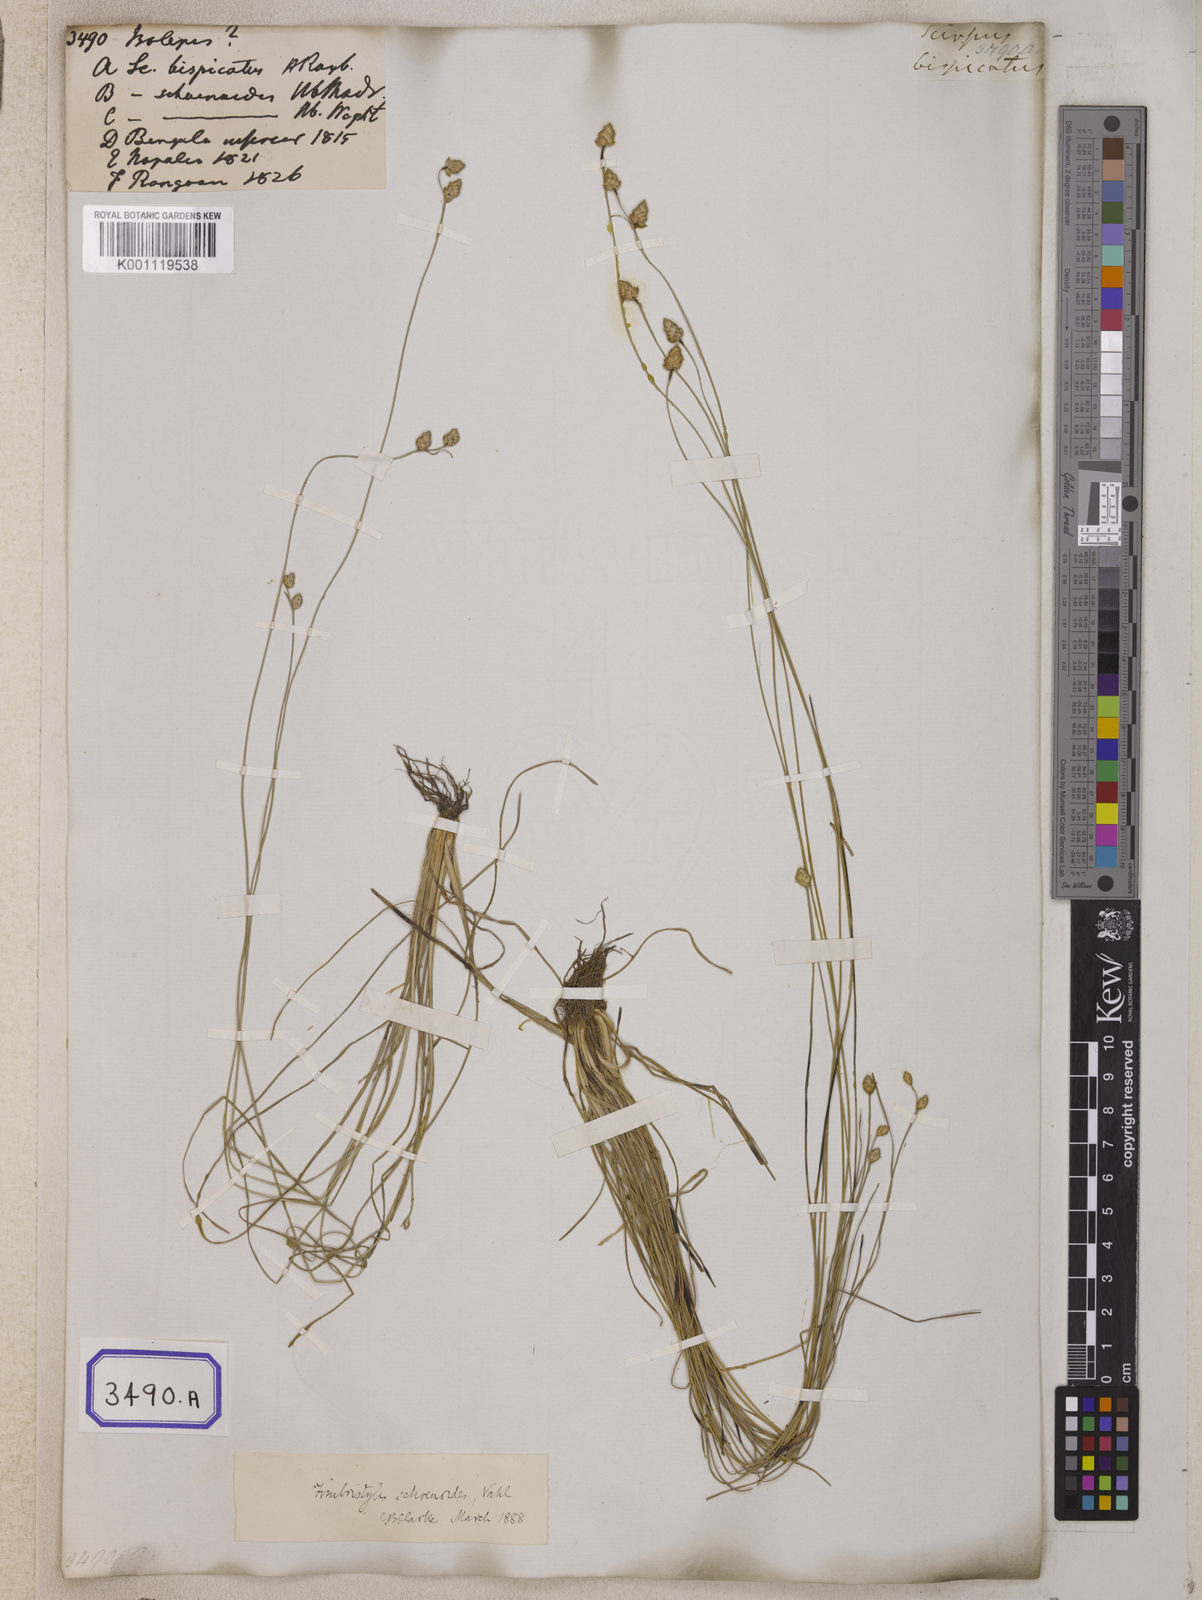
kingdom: Plantae
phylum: Tracheophyta
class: Liliopsida
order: Poales
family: Cyperaceae
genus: Isolepis
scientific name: Isolepis
